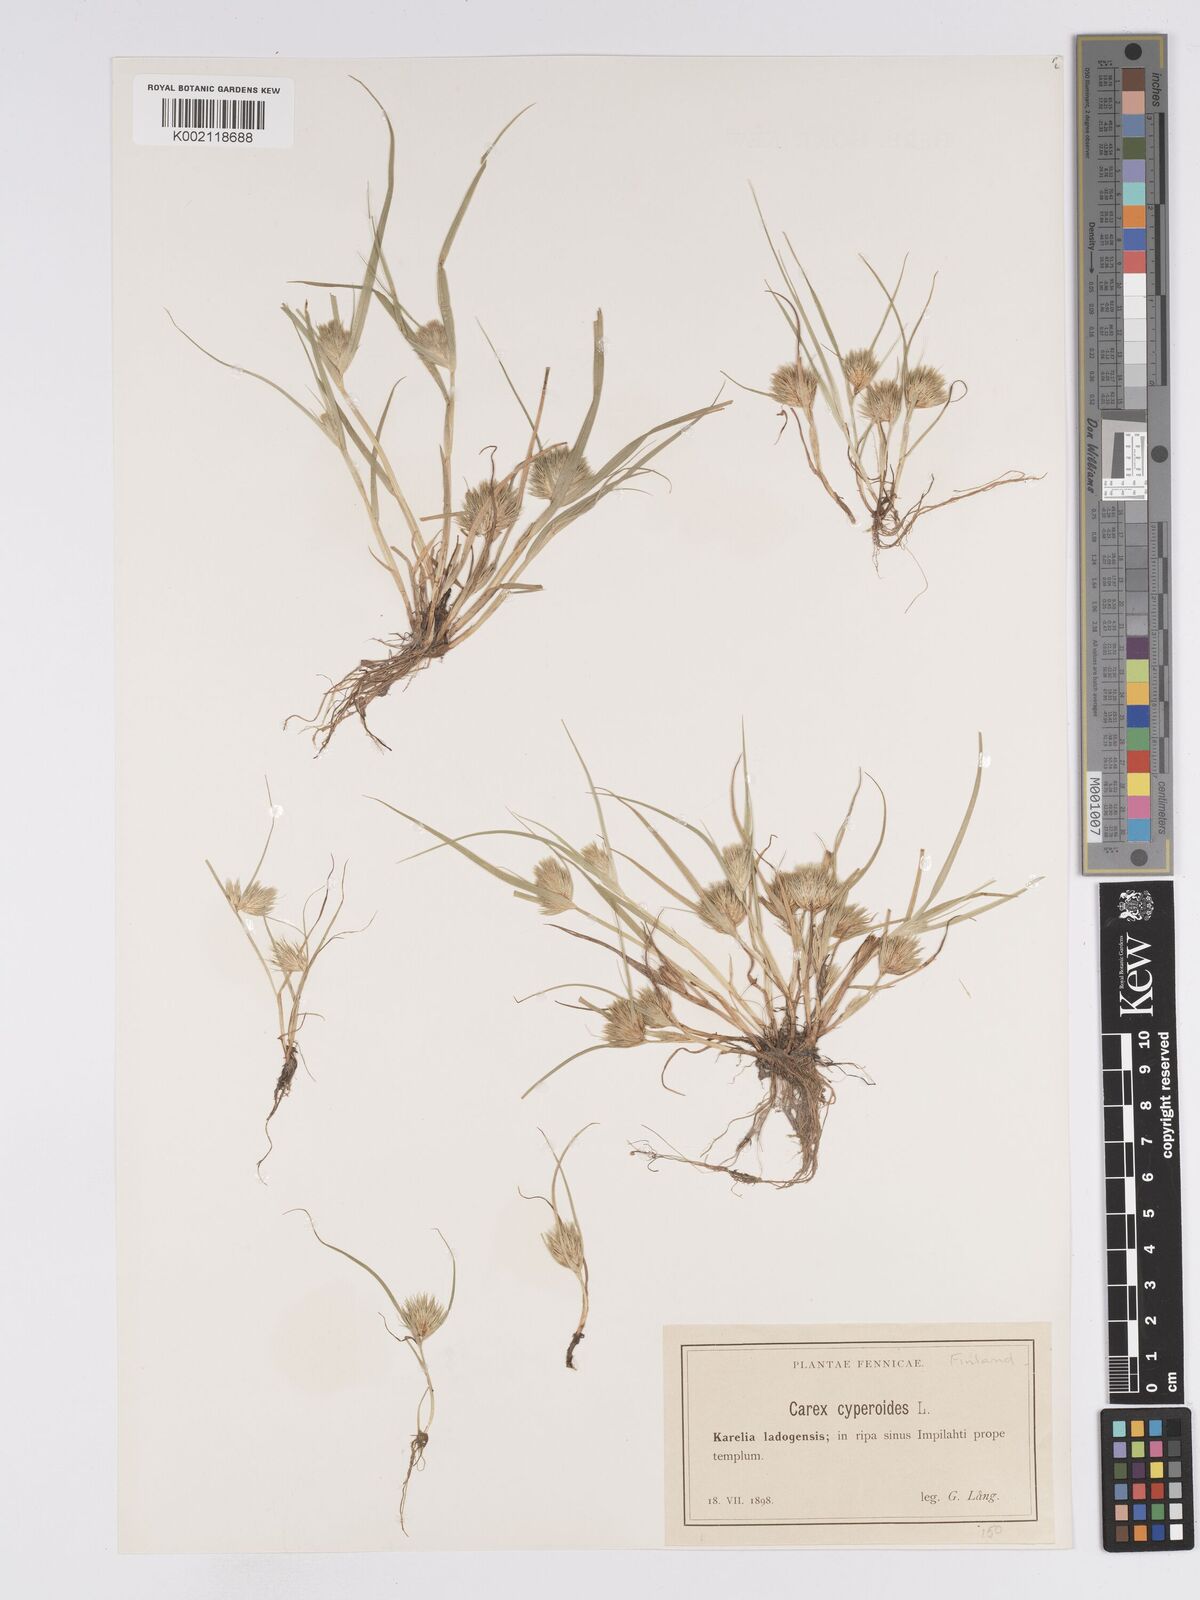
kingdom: Plantae
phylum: Tracheophyta
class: Liliopsida
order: Poales
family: Cyperaceae
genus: Carex
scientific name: Carex bohemica
